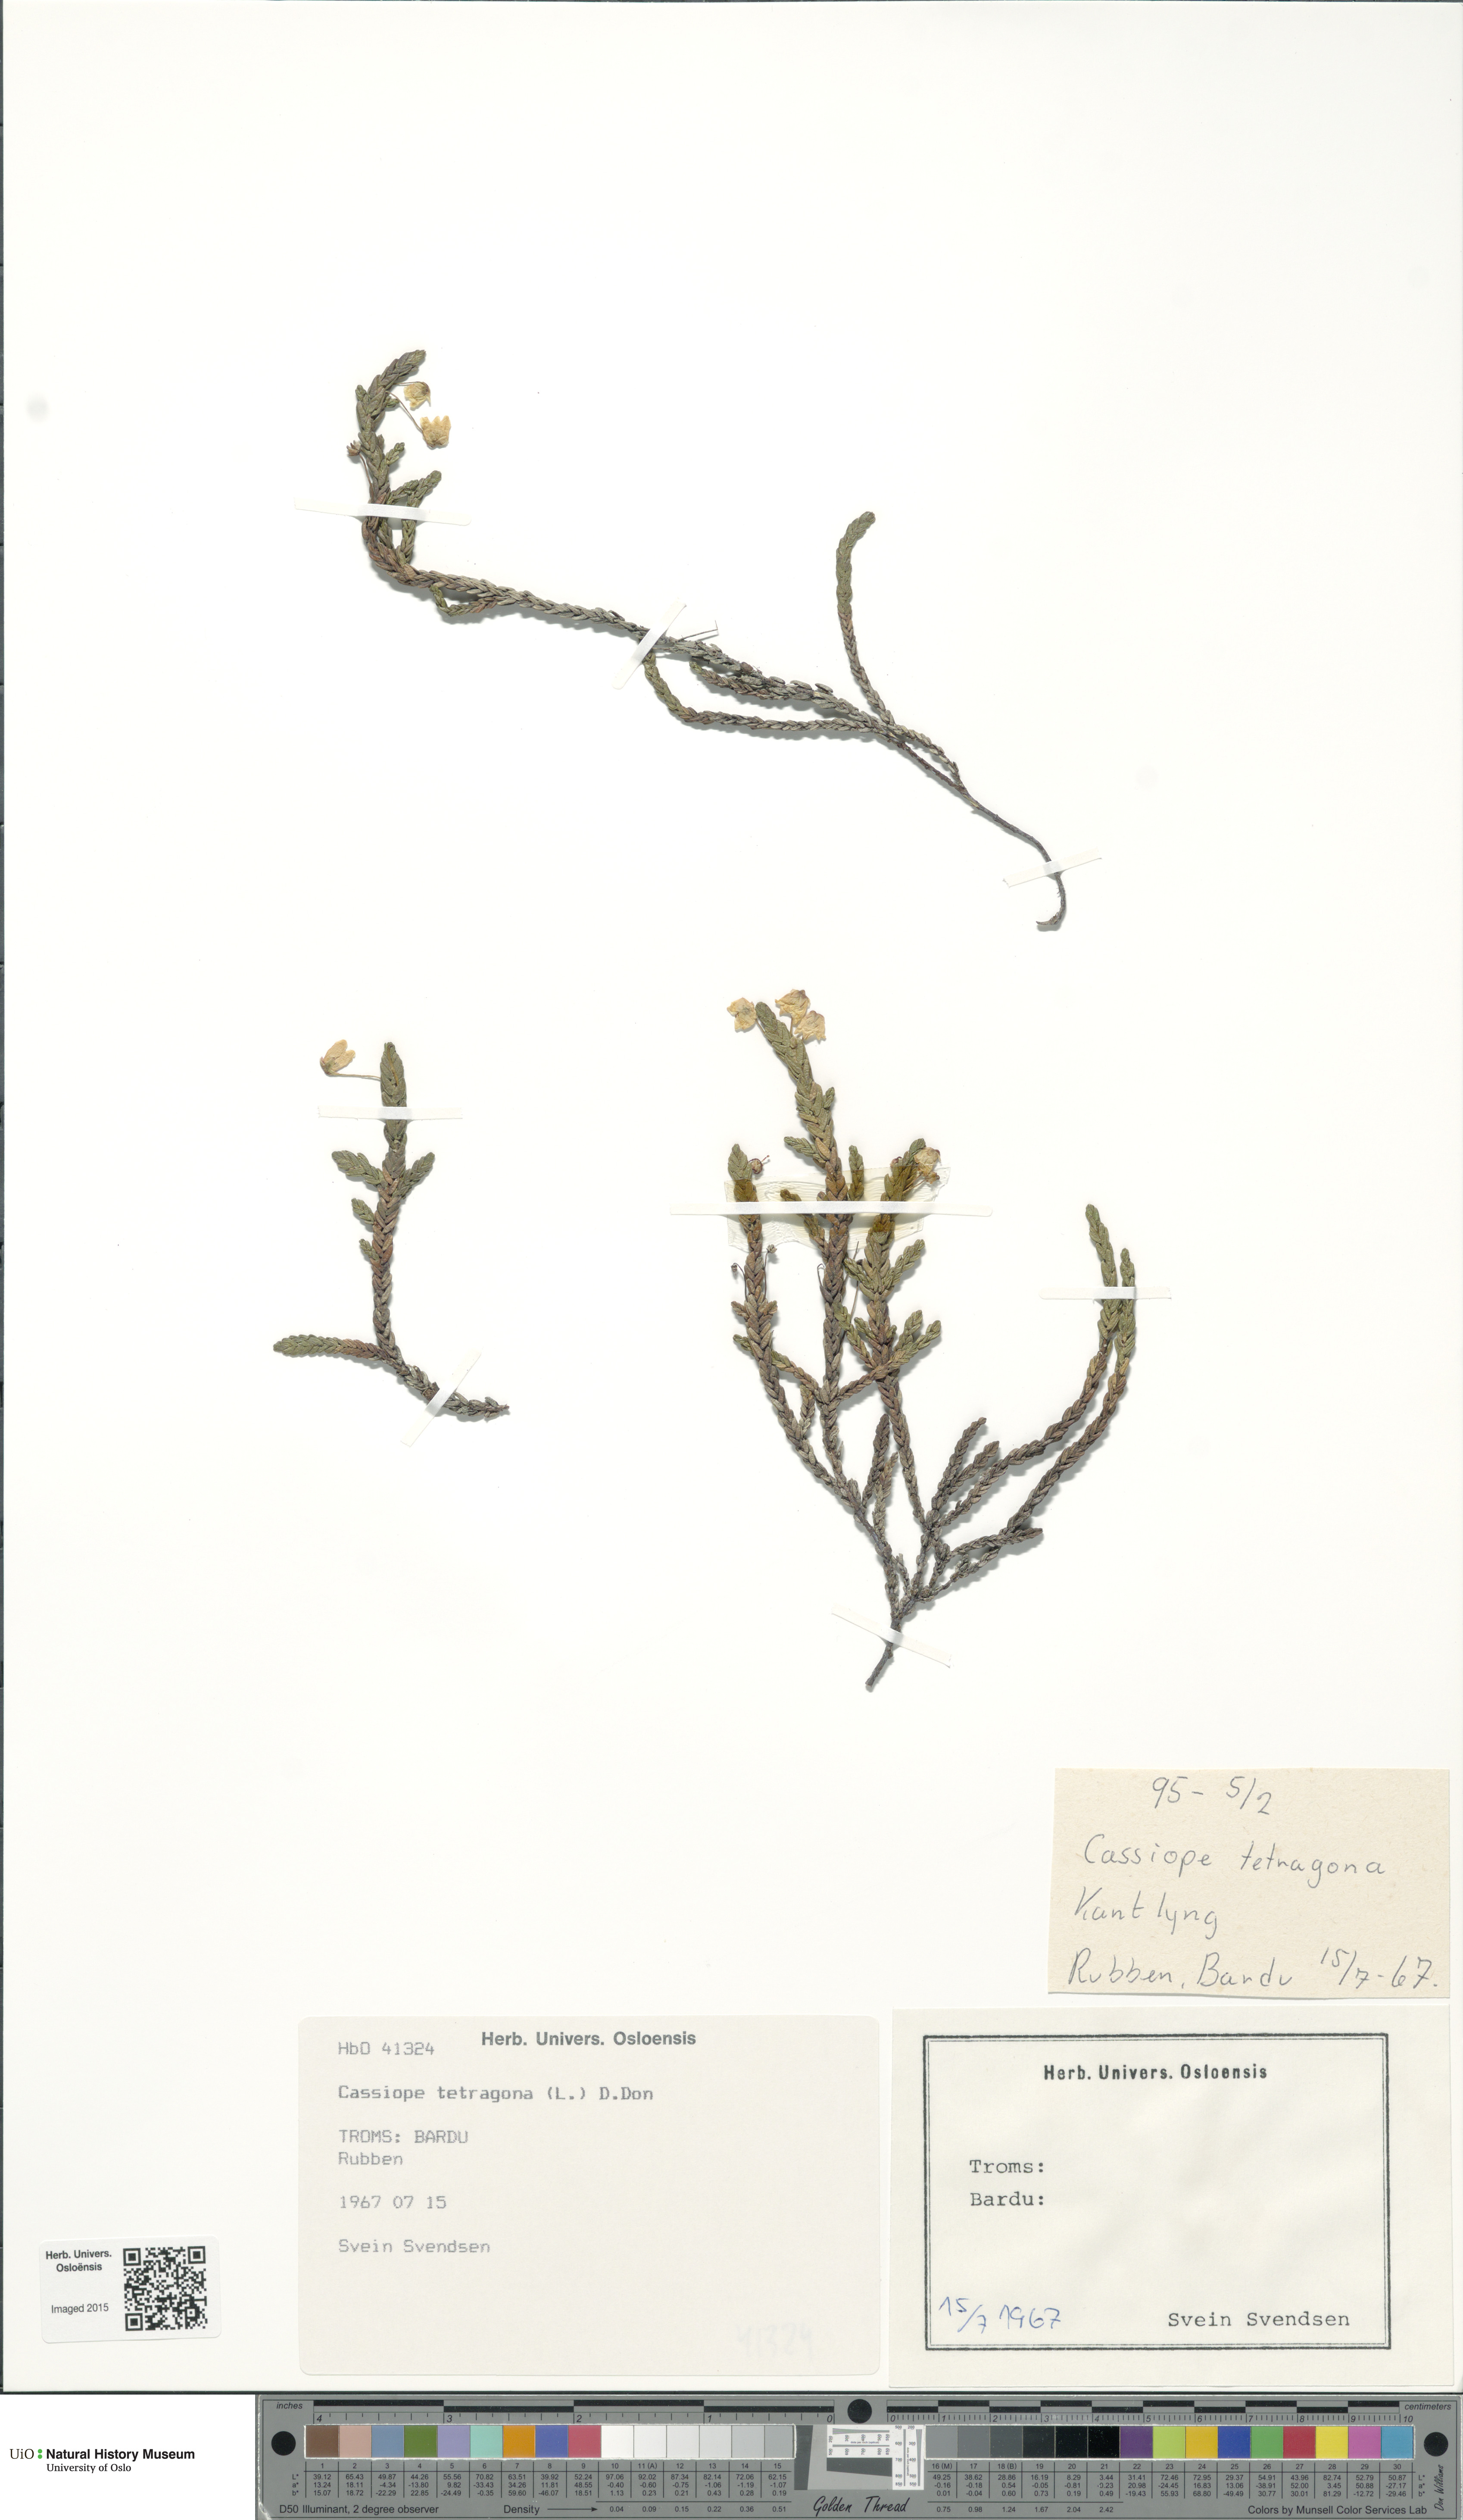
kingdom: Plantae
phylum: Tracheophyta
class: Magnoliopsida
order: Ericales
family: Ericaceae
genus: Cassiope
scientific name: Cassiope tetragona
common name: Arctic bell heather
